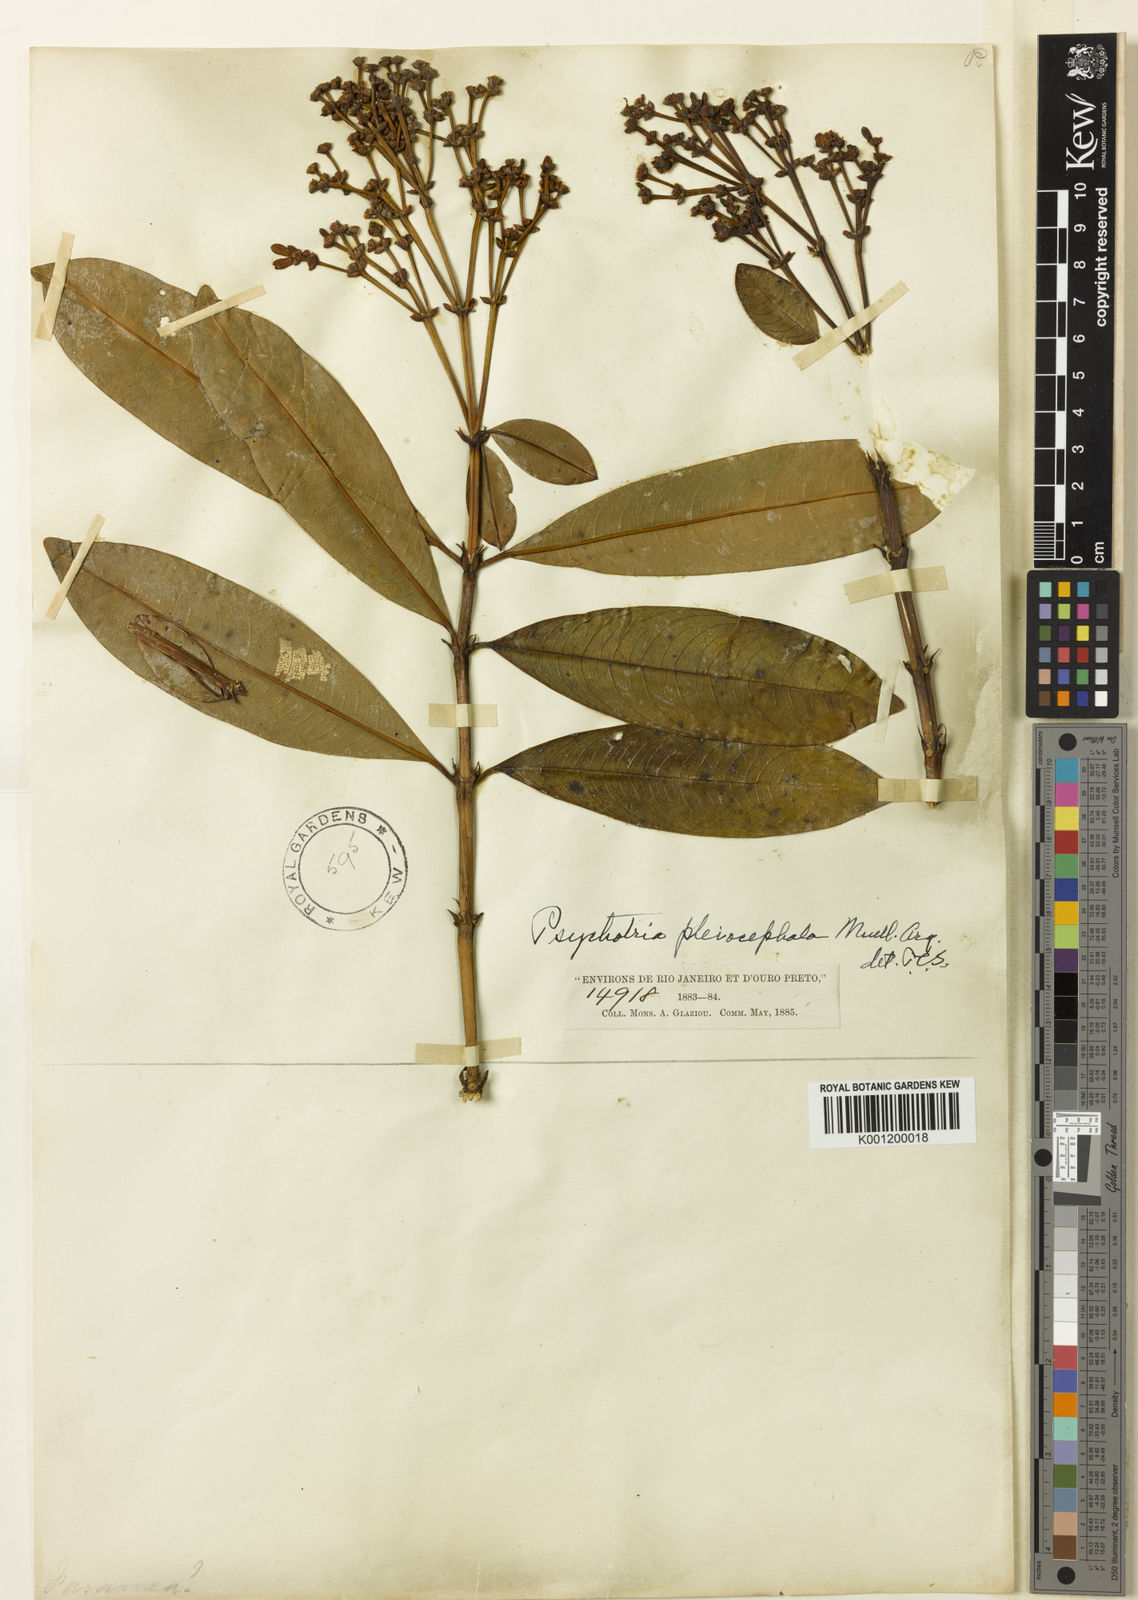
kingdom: Plantae
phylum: Tracheophyta
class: Magnoliopsida
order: Gentianales
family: Rubiaceae
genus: Psychotria
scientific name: Psychotria
